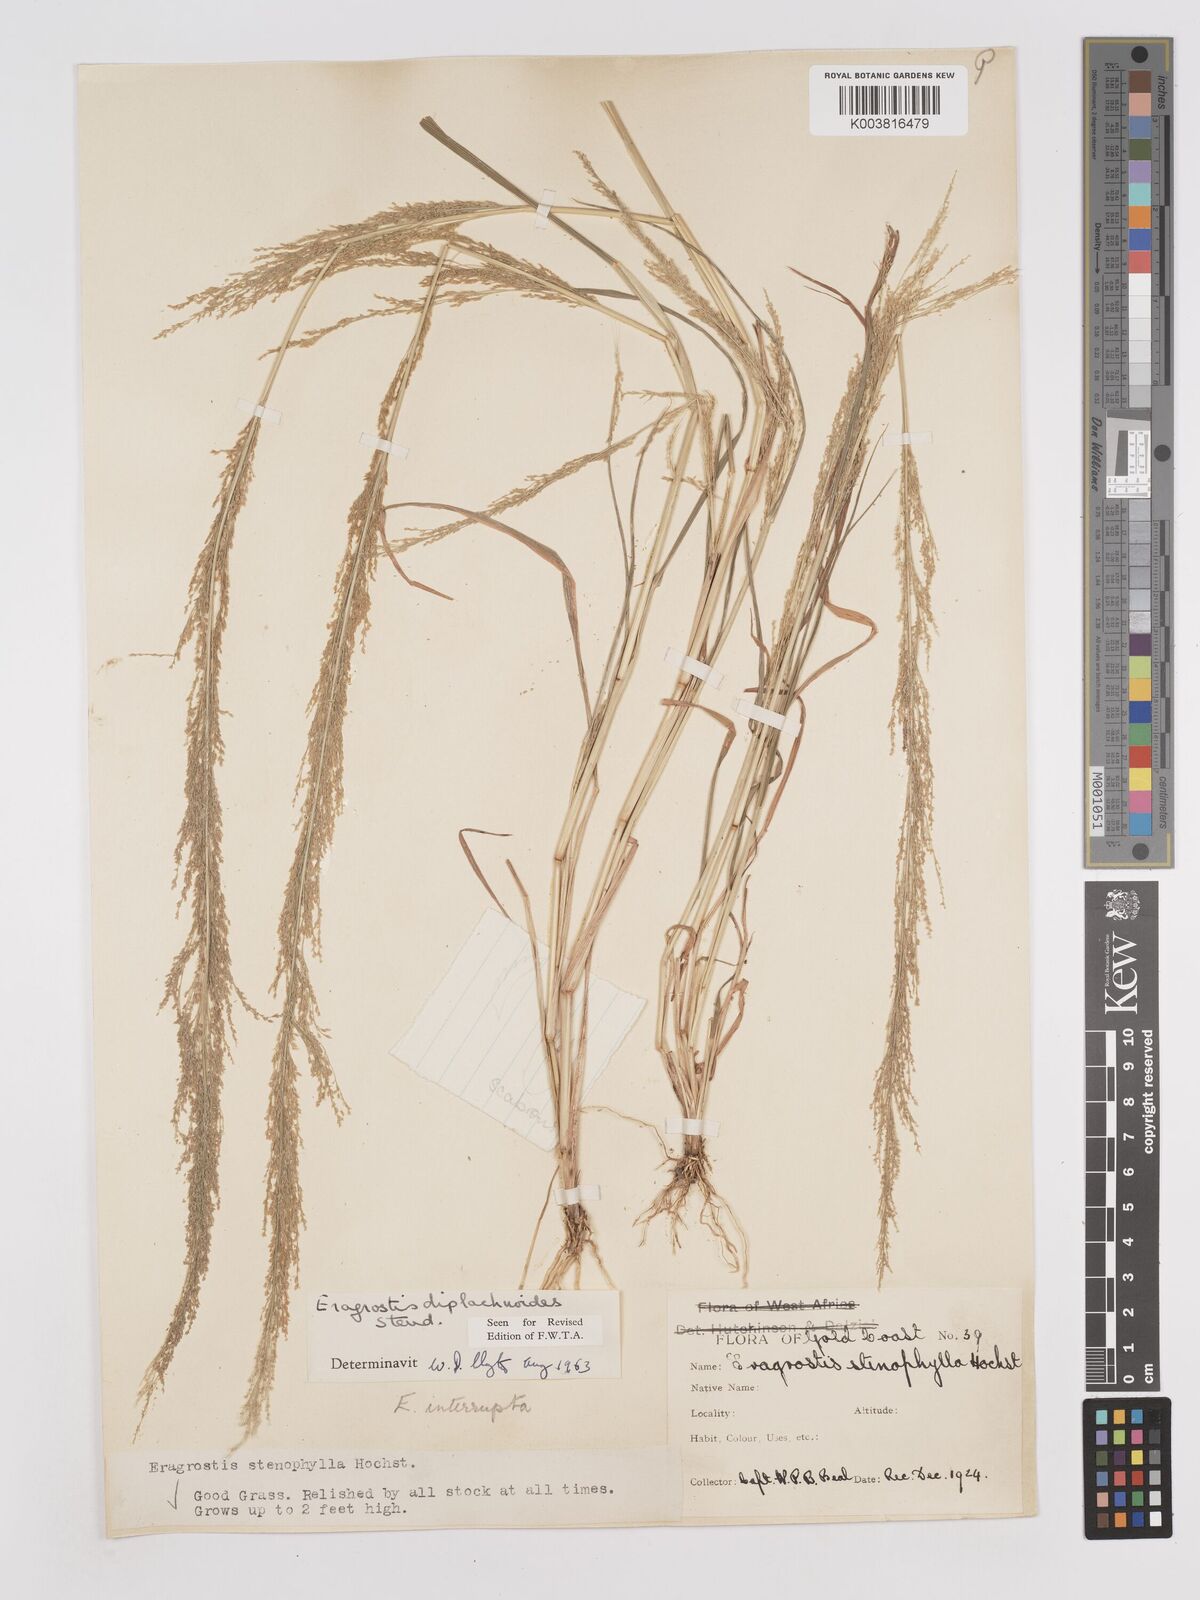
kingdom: Plantae
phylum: Tracheophyta
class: Liliopsida
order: Poales
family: Poaceae
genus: Eragrostis
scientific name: Eragrostis japonica
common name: Pond lovegrass
